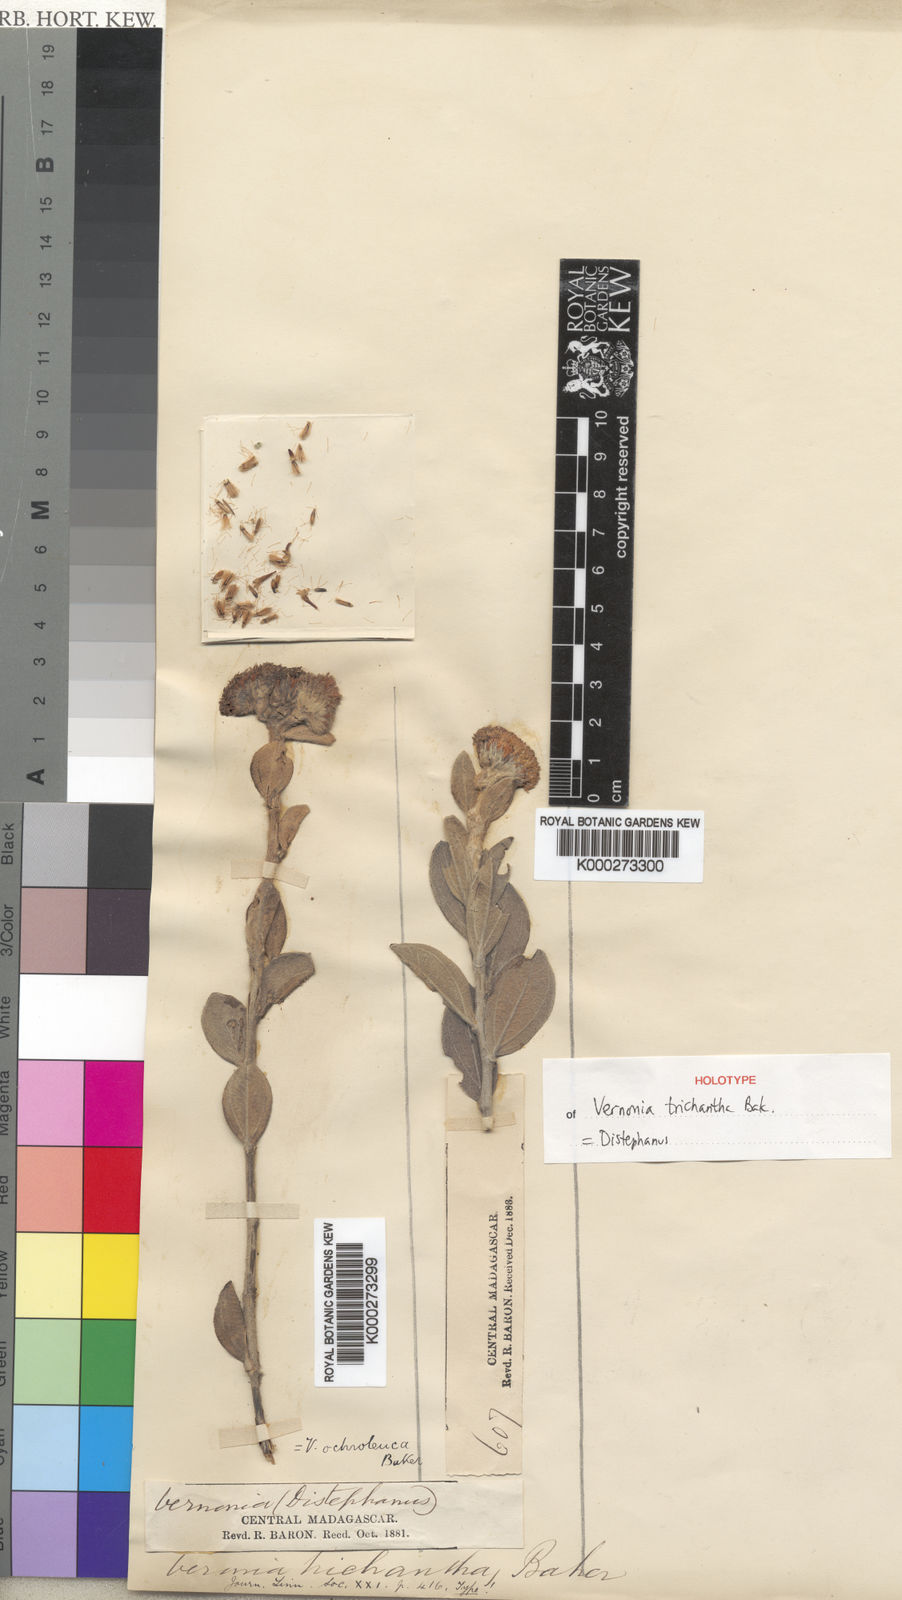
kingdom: Plantae
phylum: Tracheophyta
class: Magnoliopsida
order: Asterales
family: Asteraceae
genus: Distephanus
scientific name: Distephanus ochroleucus
